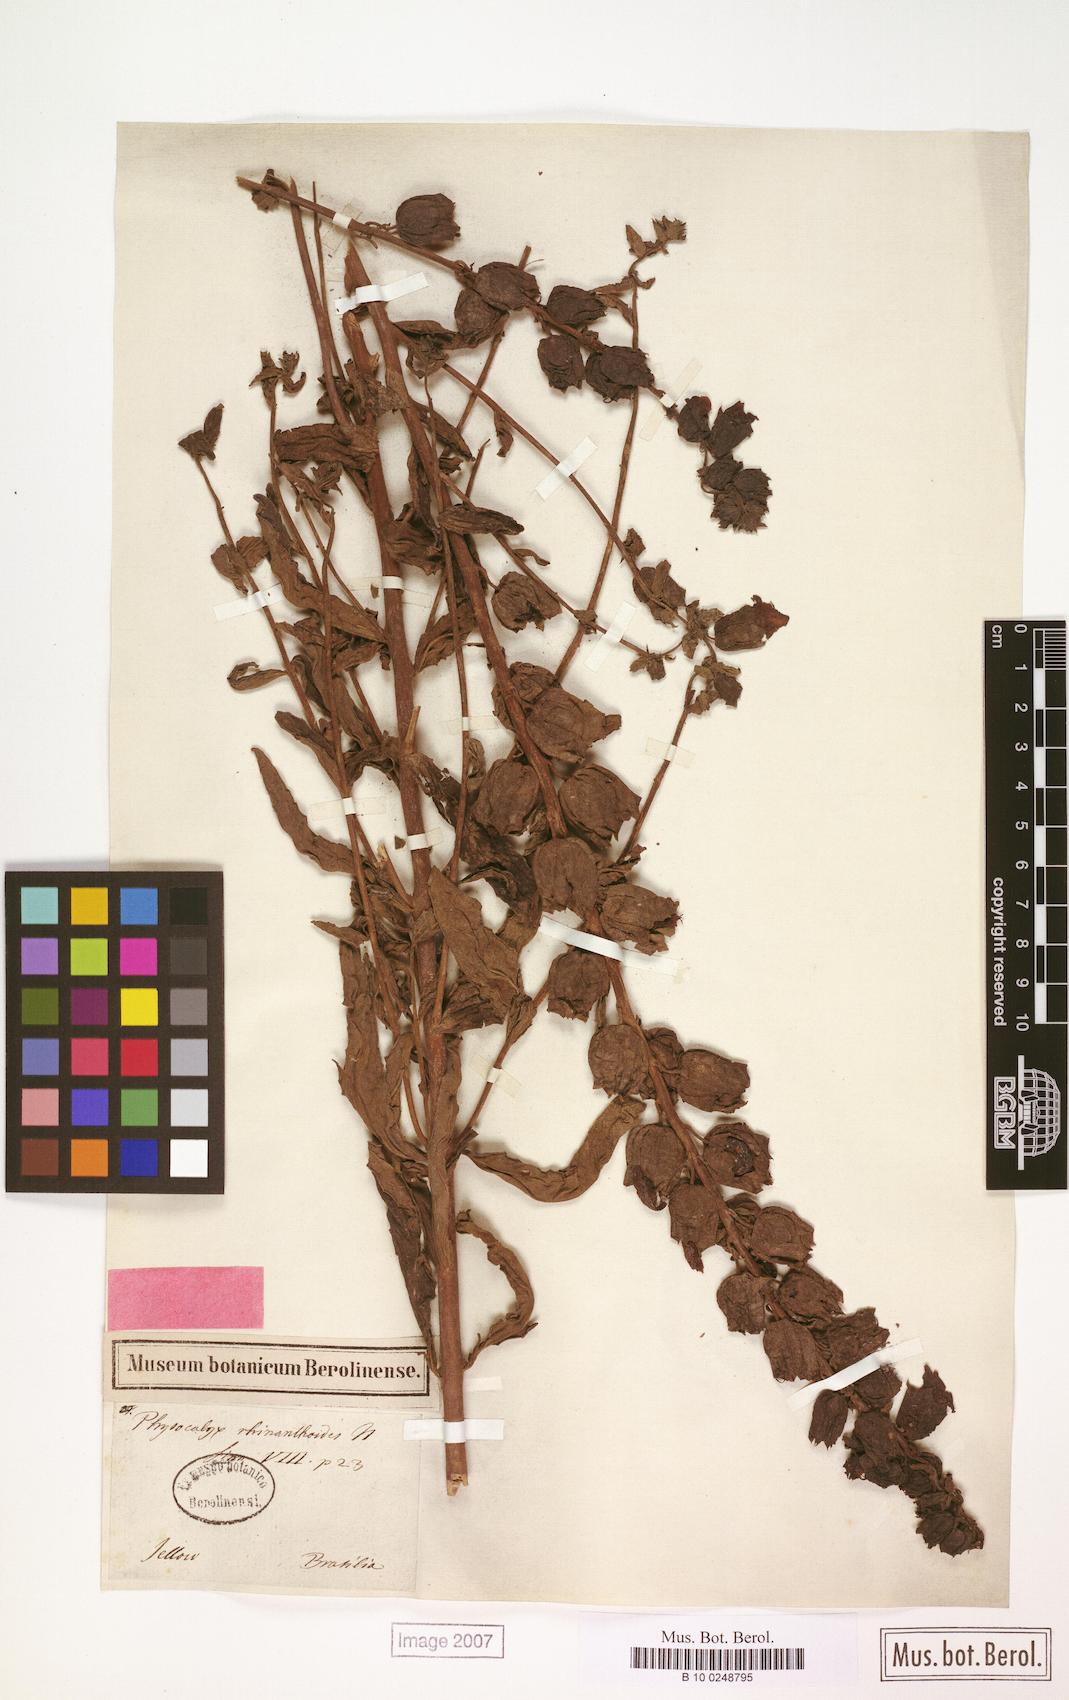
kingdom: Plantae
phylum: Tracheophyta
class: Magnoliopsida
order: Lamiales
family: Orobanchaceae
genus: Melasma
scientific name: Melasma rhinanthoides
